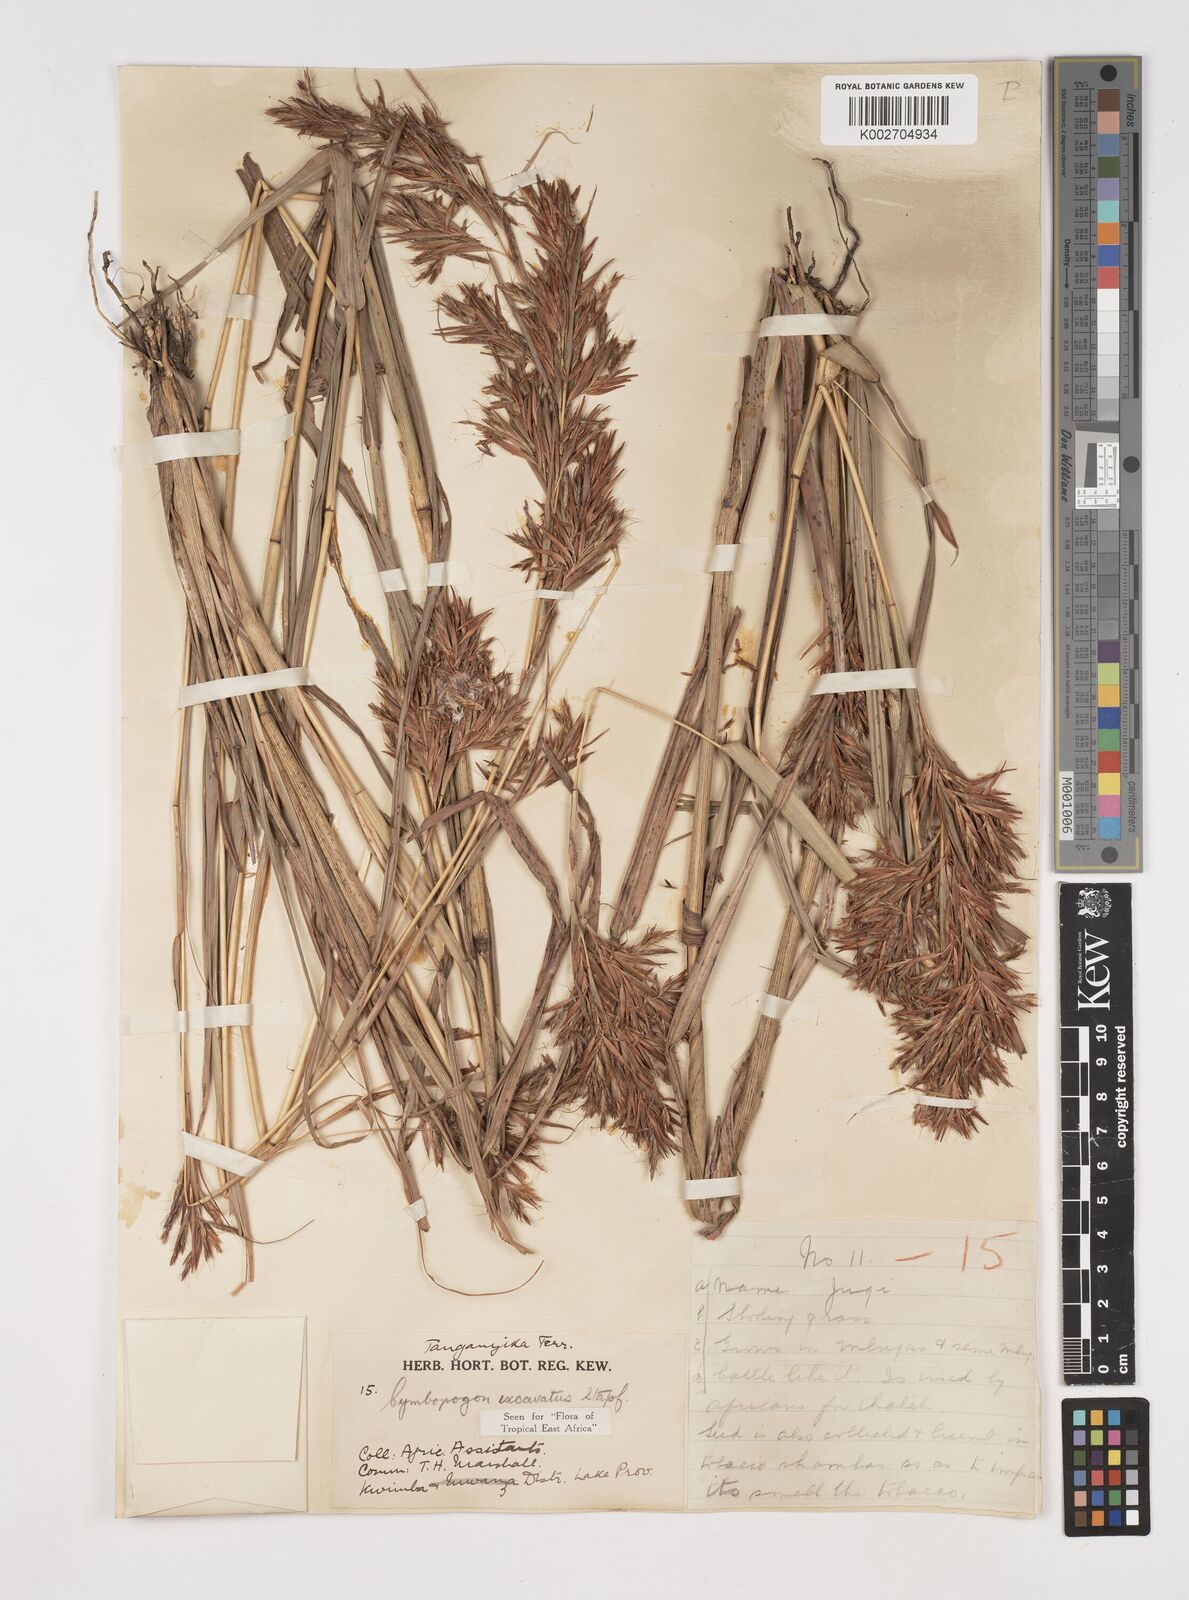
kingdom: Plantae
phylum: Tracheophyta
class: Liliopsida
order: Poales
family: Poaceae
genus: Cymbopogon
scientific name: Cymbopogon caesius
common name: Kachi grass
